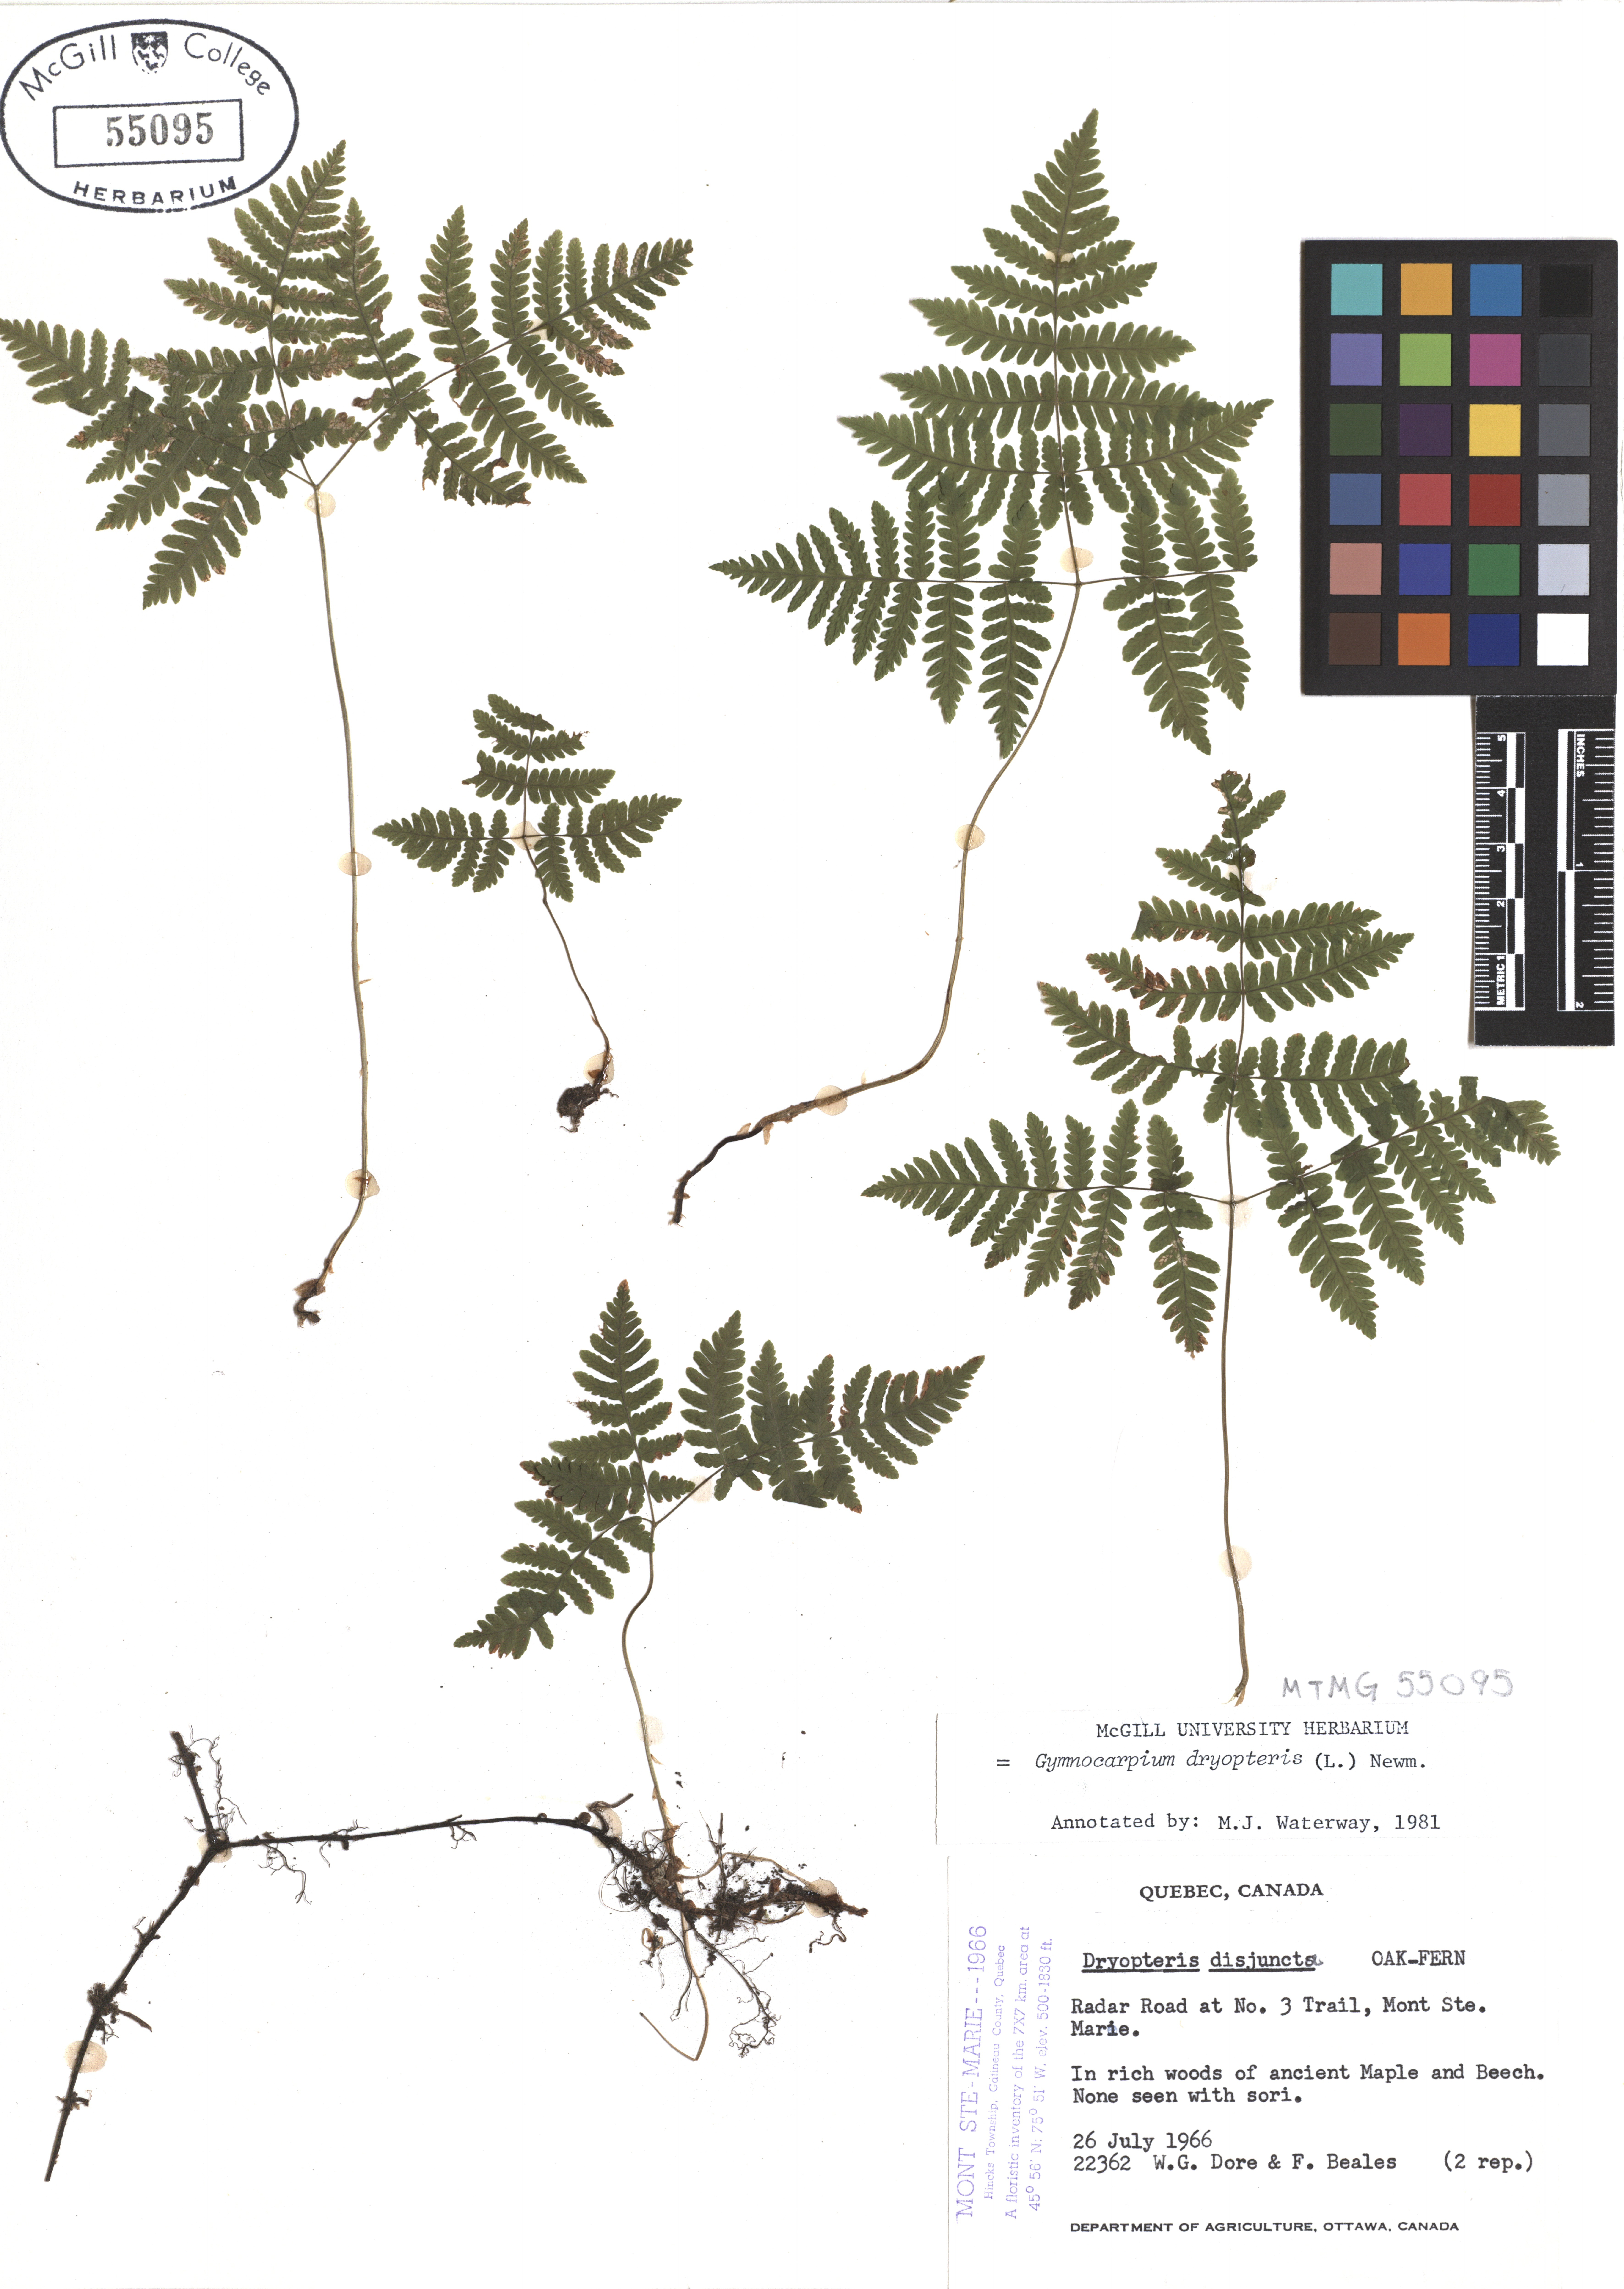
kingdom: Plantae
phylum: Tracheophyta
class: Polypodiopsida
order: Polypodiales
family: Cystopteridaceae
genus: Gymnocarpium
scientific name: Gymnocarpium dryopteris
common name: Oak fern
